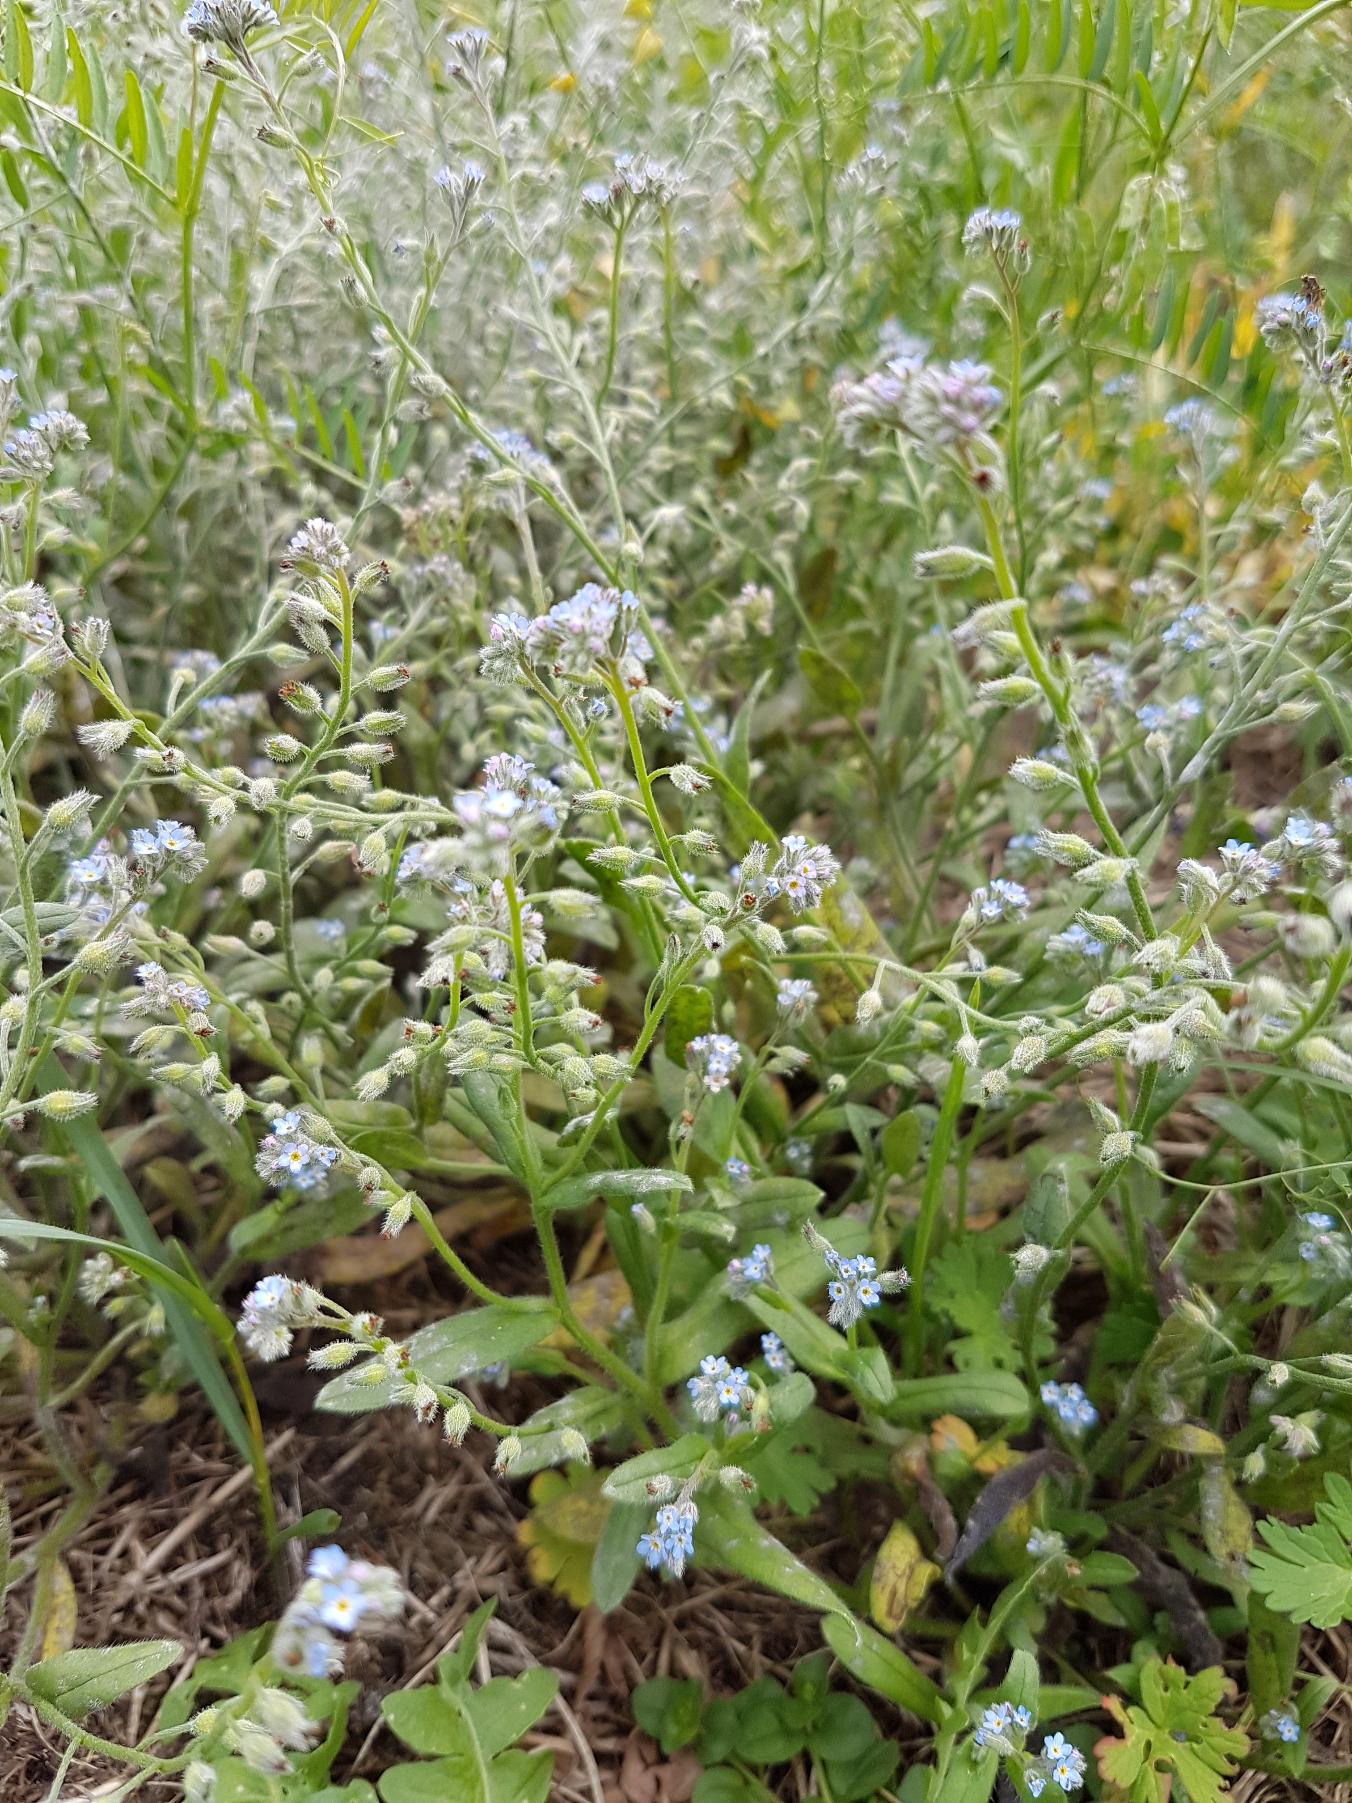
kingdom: Plantae
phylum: Tracheophyta
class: Magnoliopsida
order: Boraginales
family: Boraginaceae
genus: Myosotis
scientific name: Myosotis arvensis
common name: Mark-forglemmigej
